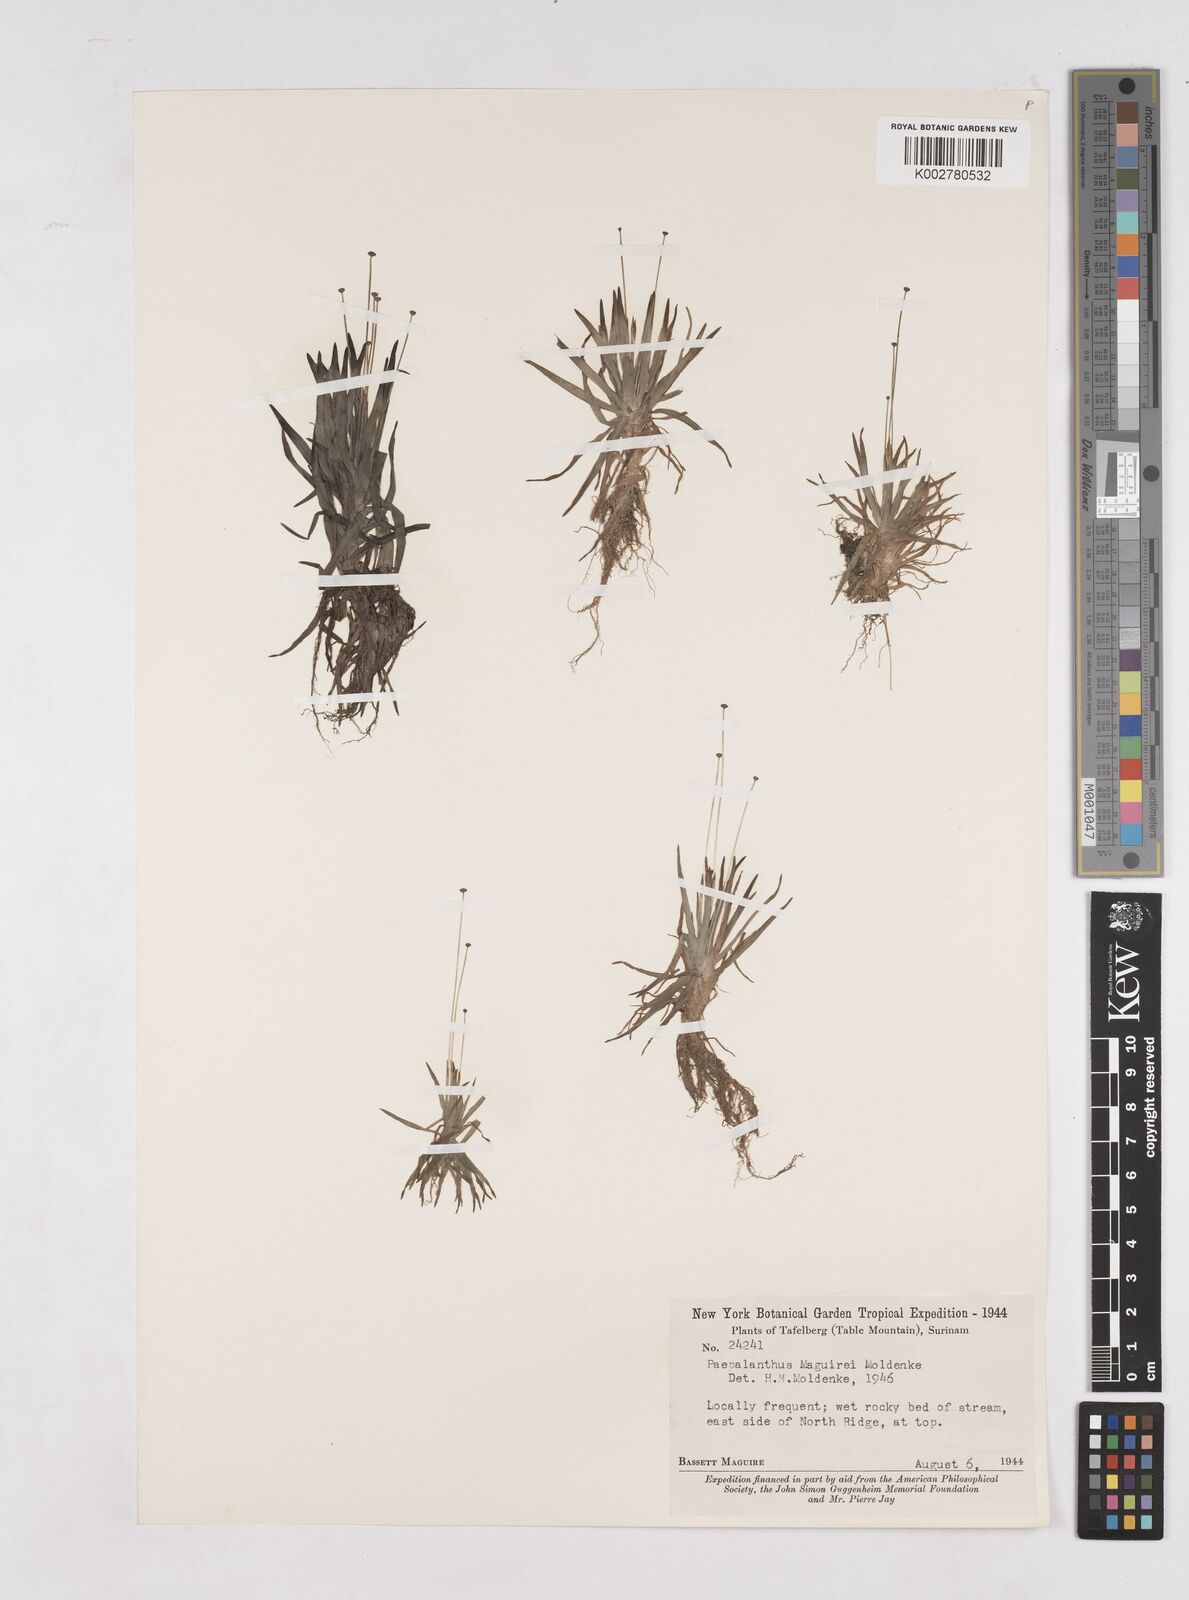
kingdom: Plantae
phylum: Tracheophyta
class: Liliopsida
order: Poales
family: Eriocaulaceae
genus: Paepalanthus
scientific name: Paepalanthus tortilis
